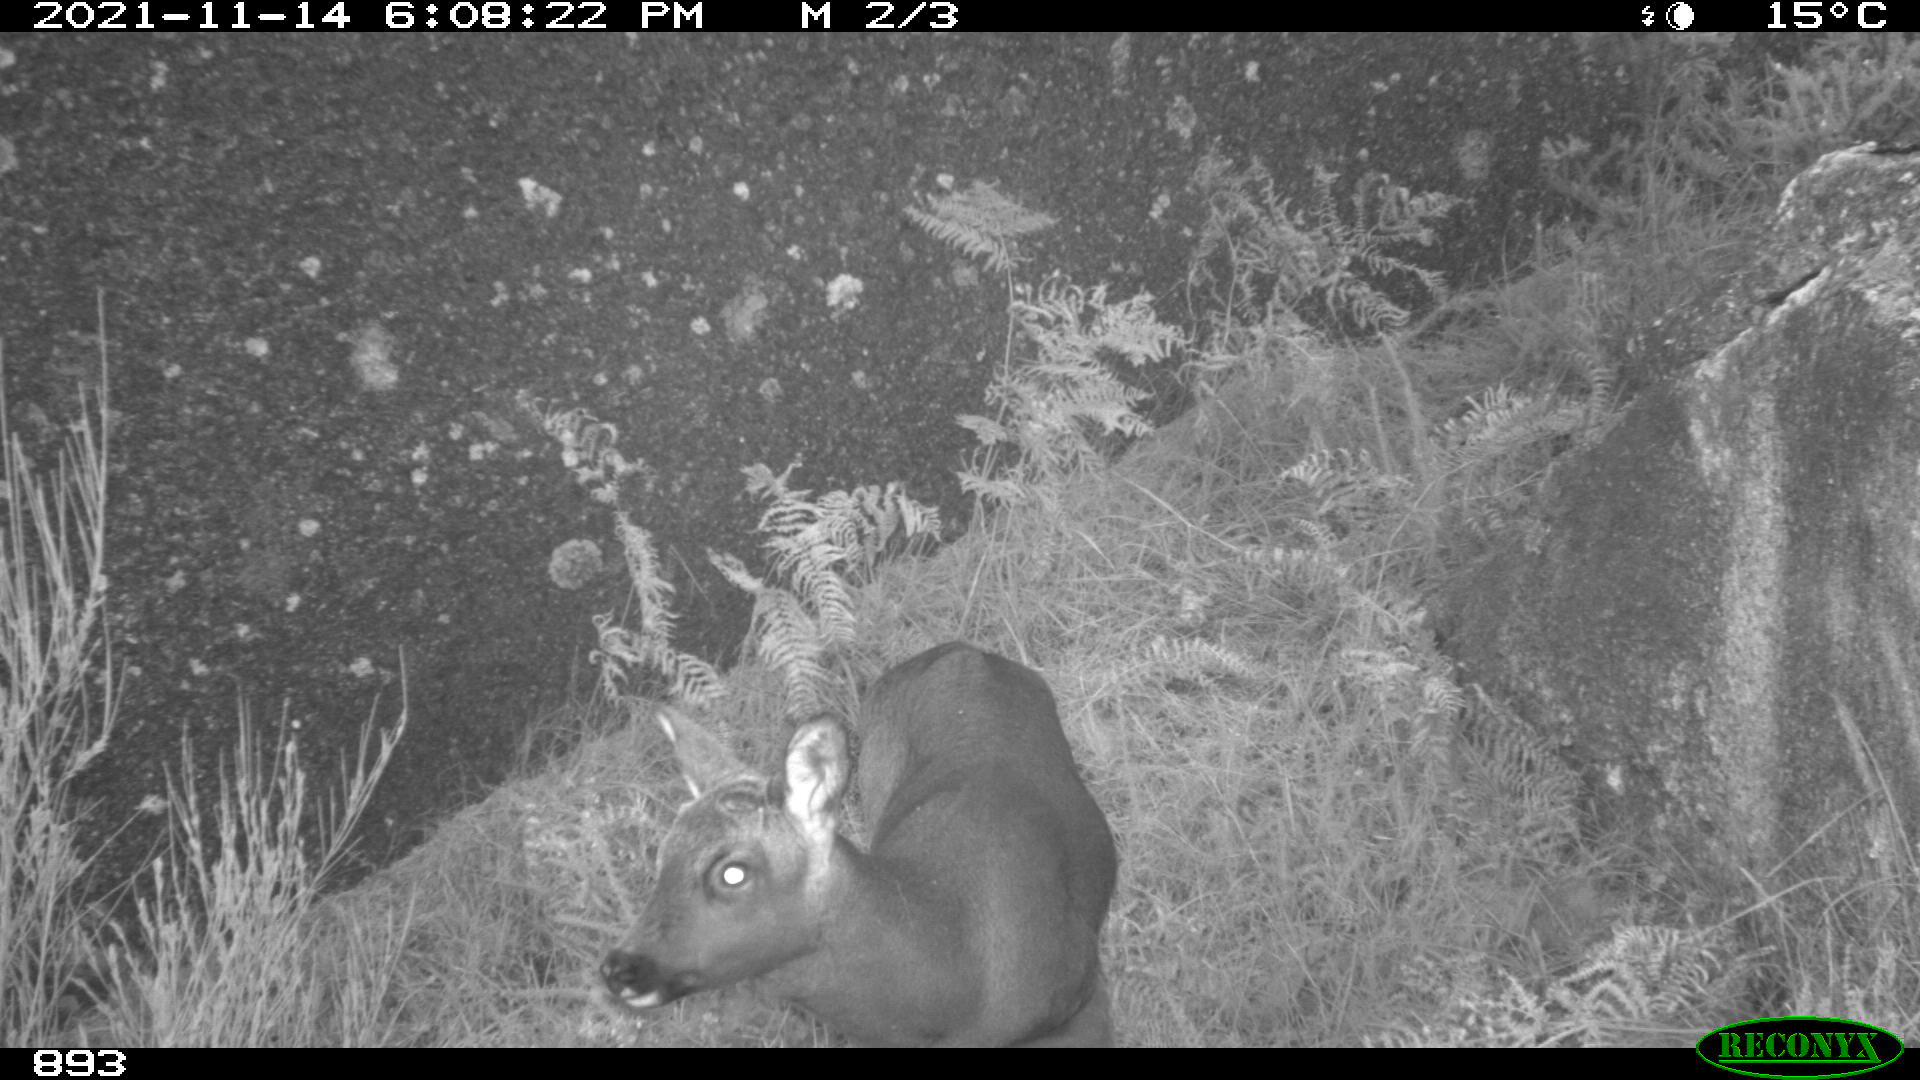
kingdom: Animalia
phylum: Chordata
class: Mammalia
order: Artiodactyla
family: Cervidae
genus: Capreolus
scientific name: Capreolus capreolus
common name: Western roe deer
